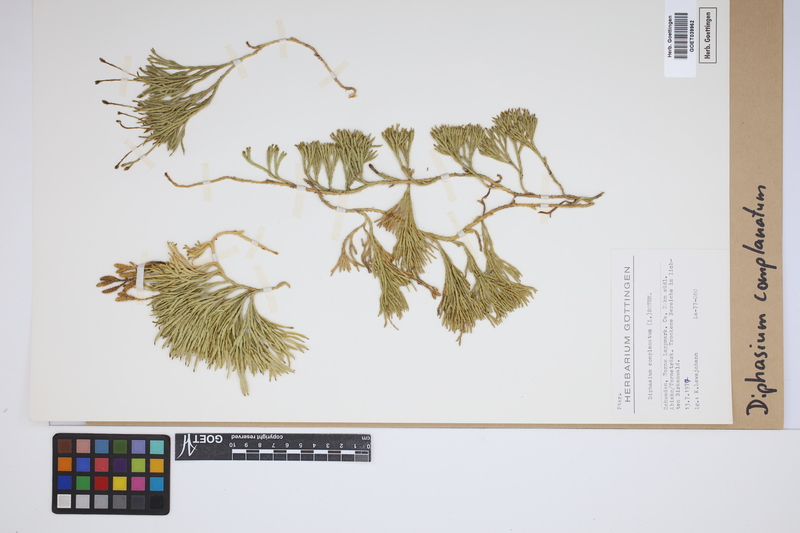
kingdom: Plantae
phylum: Tracheophyta
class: Lycopodiopsida
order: Lycopodiales
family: Lycopodiaceae
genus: Diphasiastrum
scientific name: Diphasiastrum complanatum
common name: Northern running-pine
